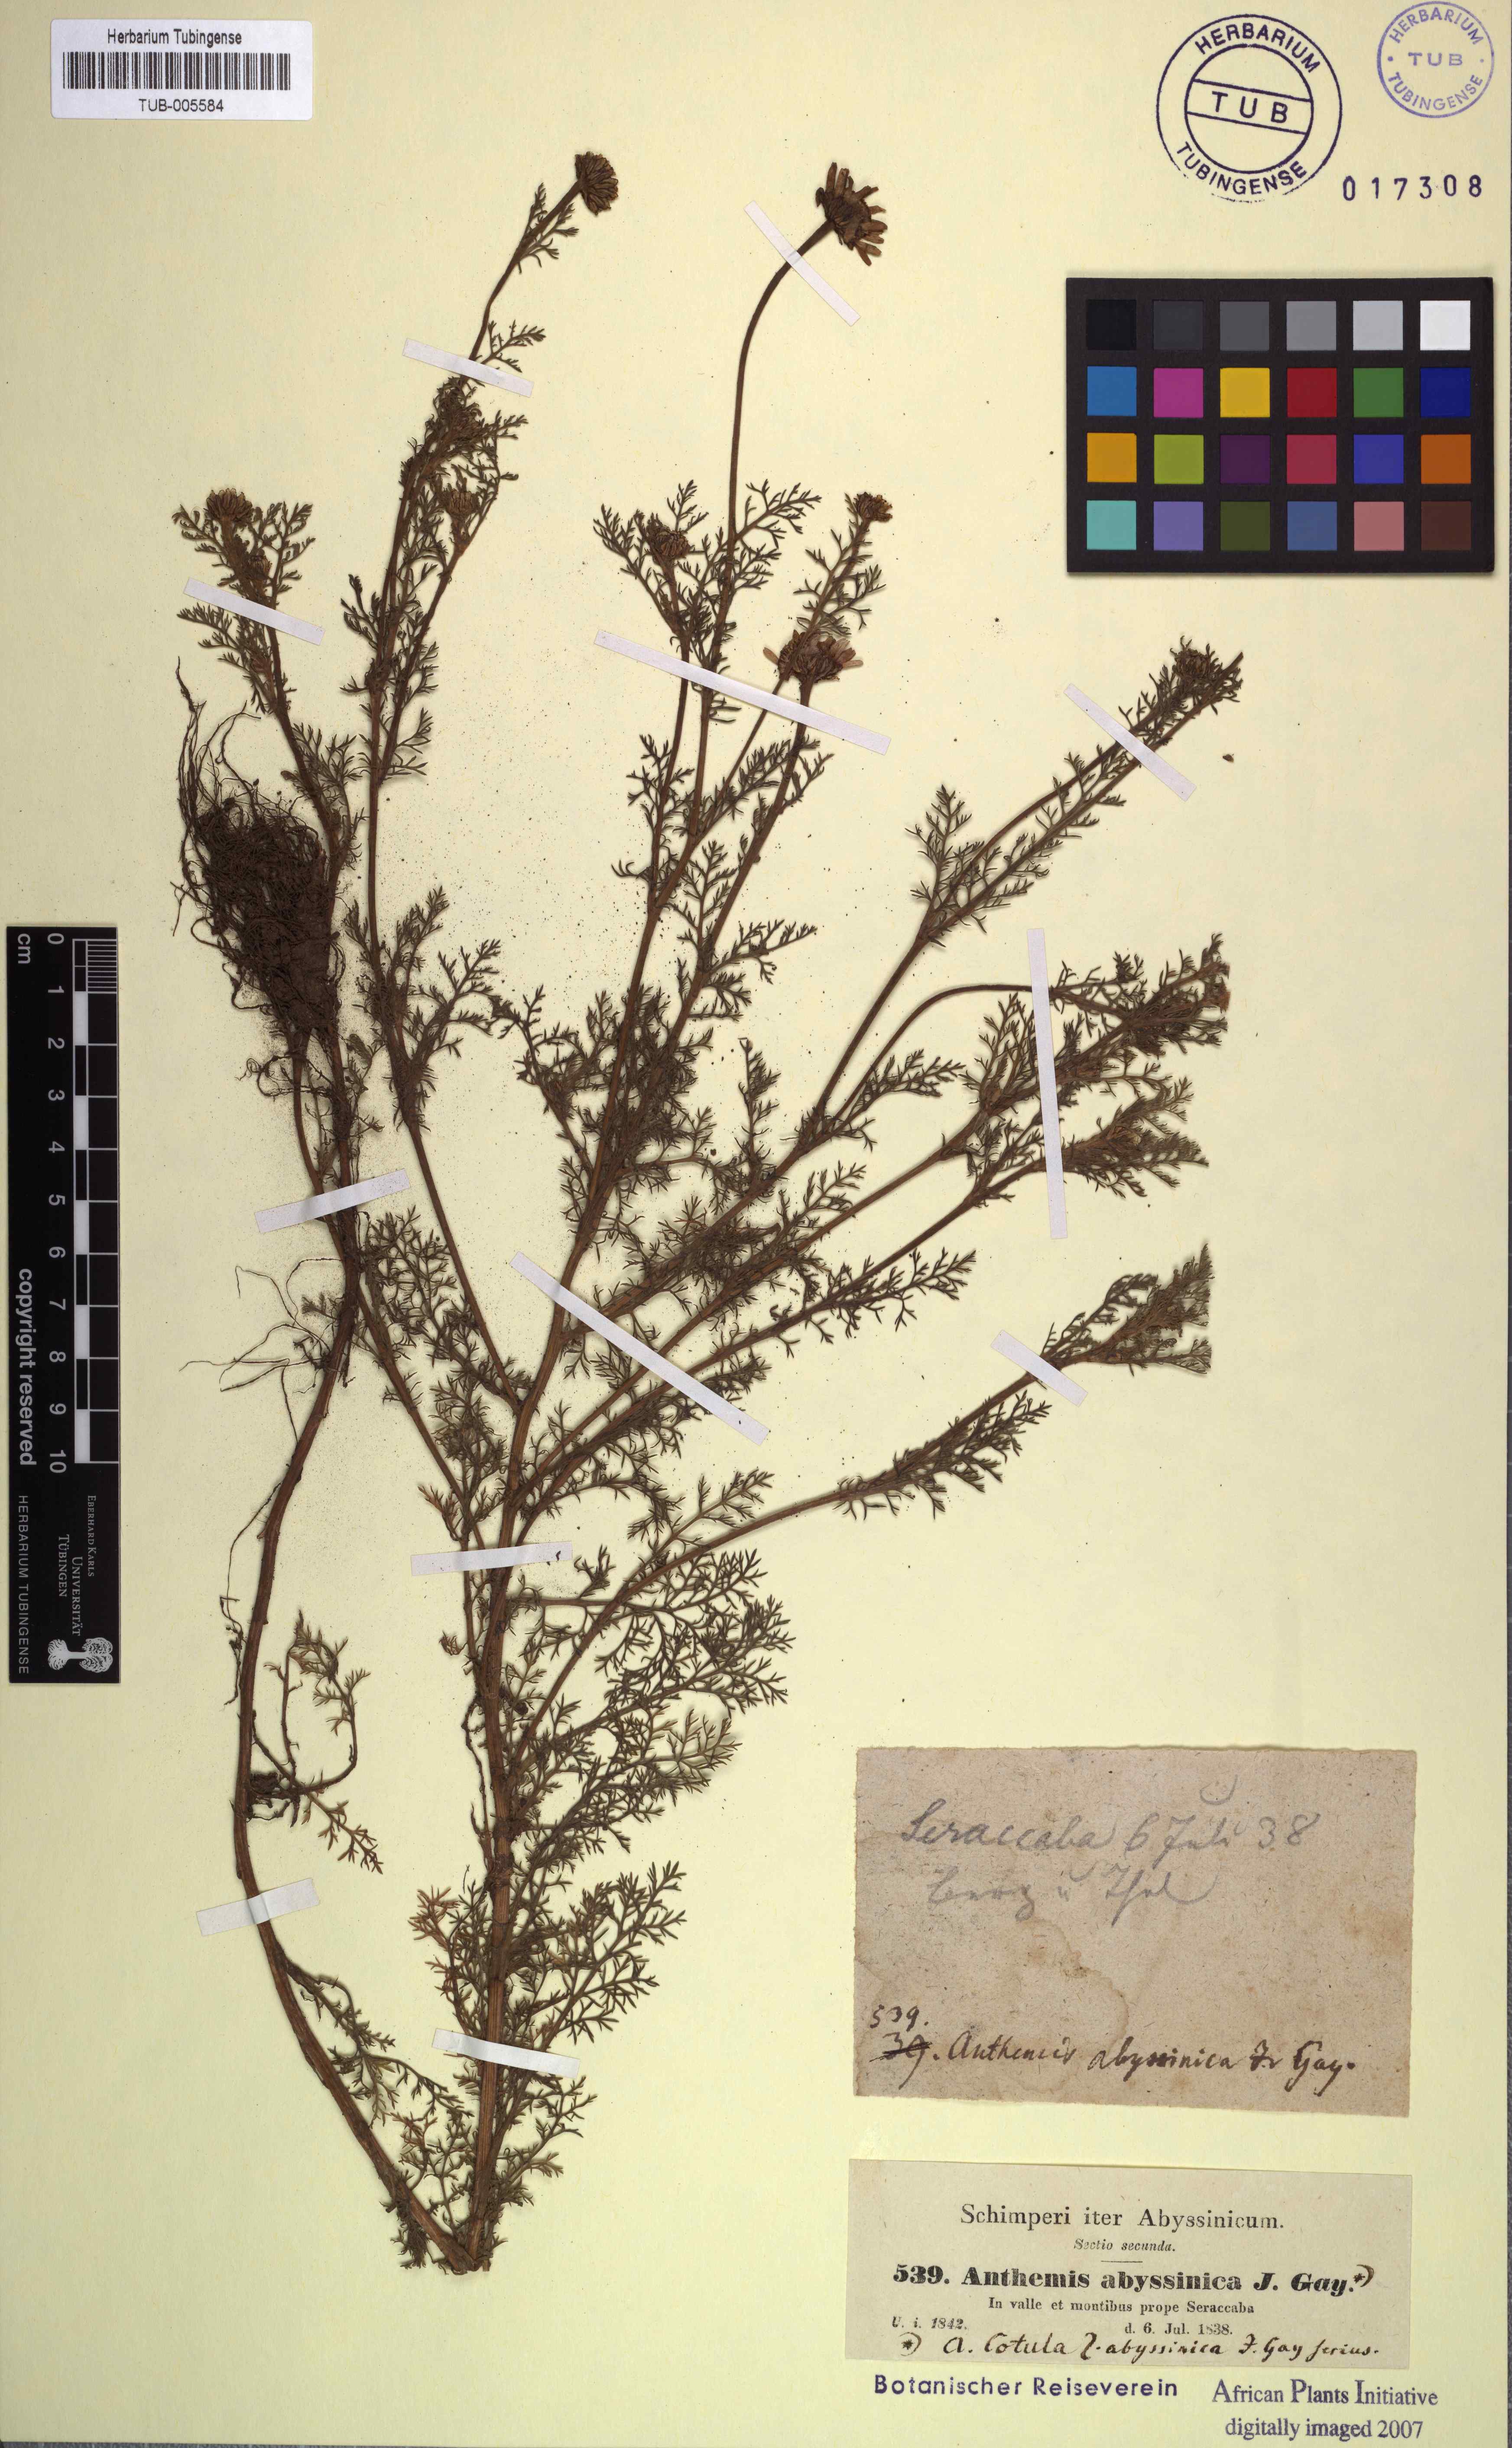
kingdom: Plantae
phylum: Tracheophyta
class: Magnoliopsida
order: Asterales
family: Asteraceae
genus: Anthemis
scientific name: Anthemis cotula
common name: Stinking chamomile
